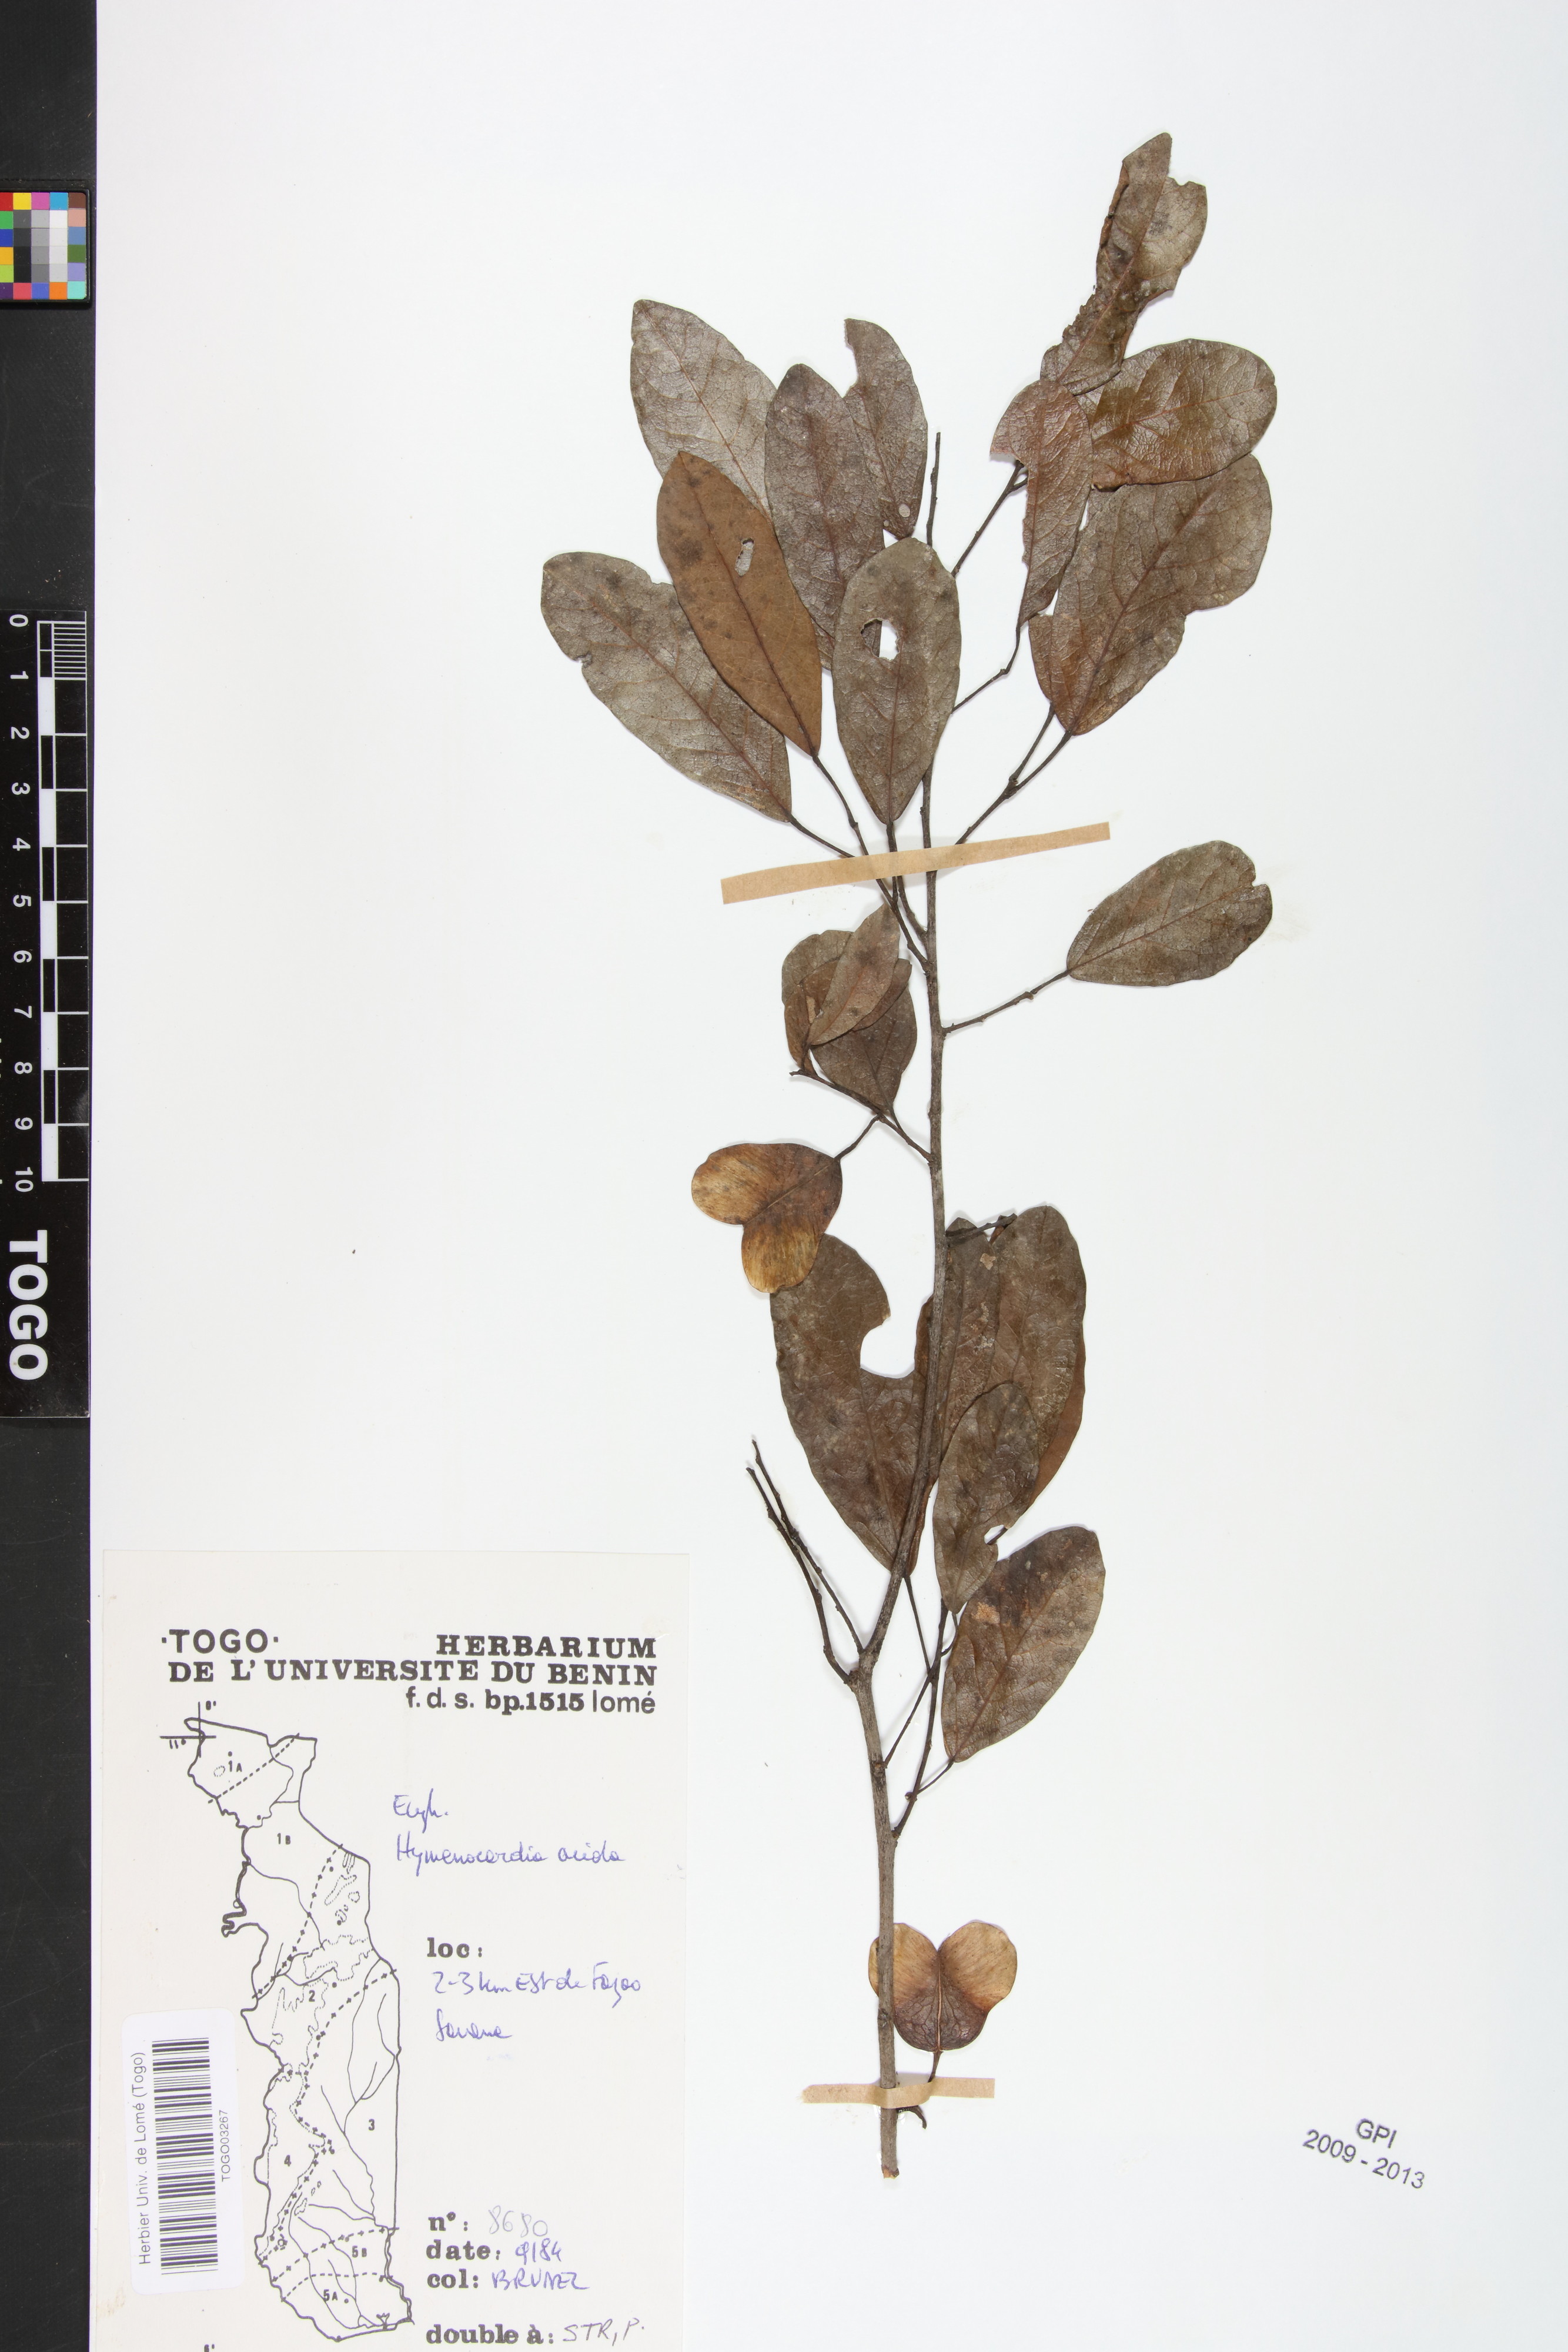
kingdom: Plantae
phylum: Tracheophyta
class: Magnoliopsida
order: Malpighiales
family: Phyllanthaceae
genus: Hymenocardia
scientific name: Hymenocardia acida
